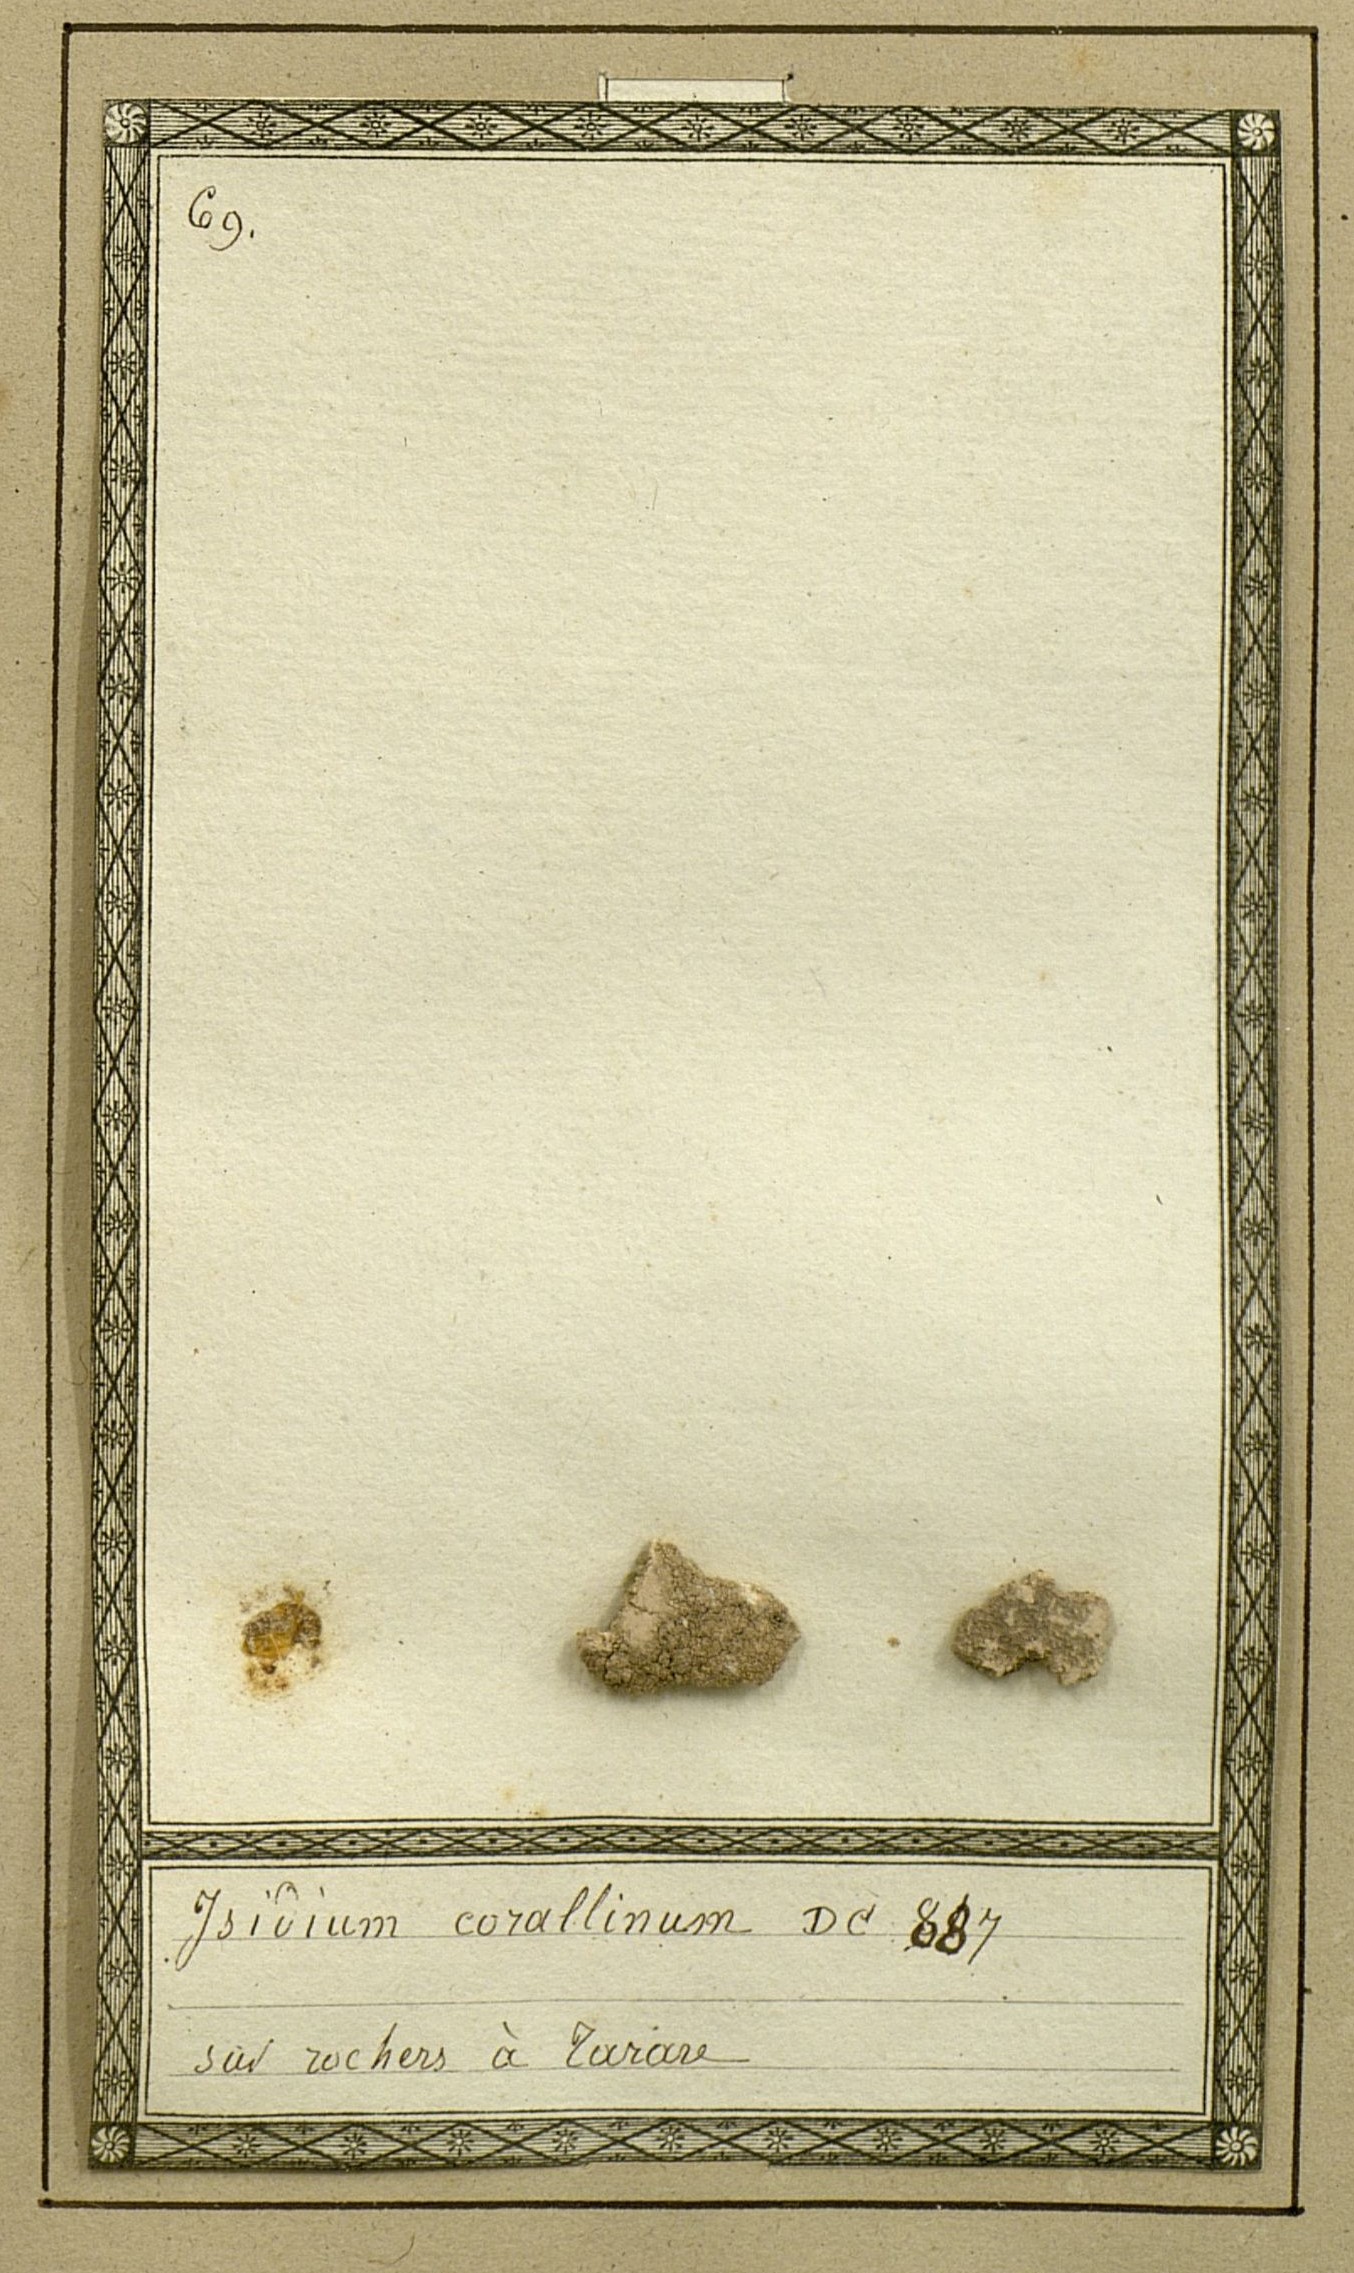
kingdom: Fungi
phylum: Ascomycota
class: Lecanoromycetes
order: Pertusariales
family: Pertusariaceae
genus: Lepra
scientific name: Lepra corallina
